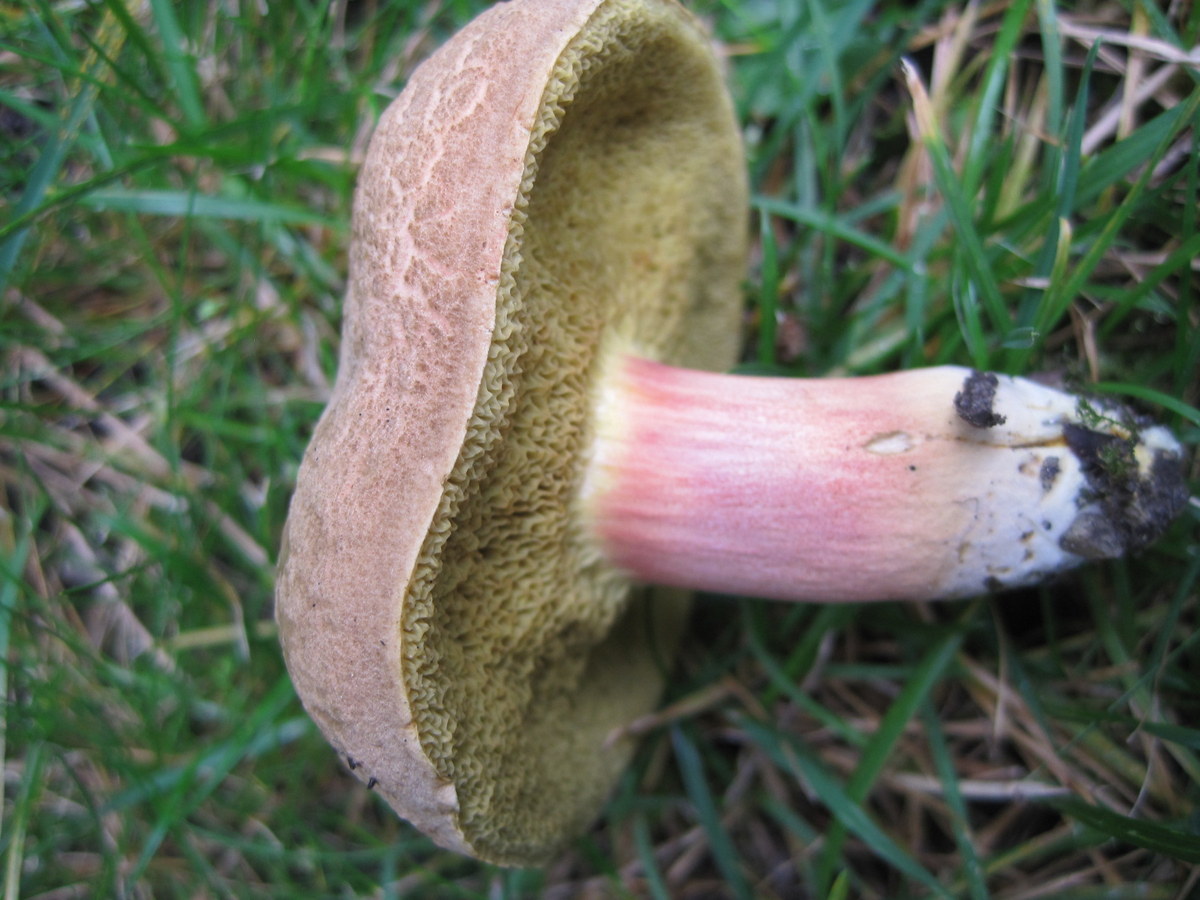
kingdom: Fungi
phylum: Basidiomycota
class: Agaricomycetes
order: Boletales
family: Boletaceae
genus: Xerocomellus
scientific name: Xerocomellus chrysenteron
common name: rødsprukken rørhat
